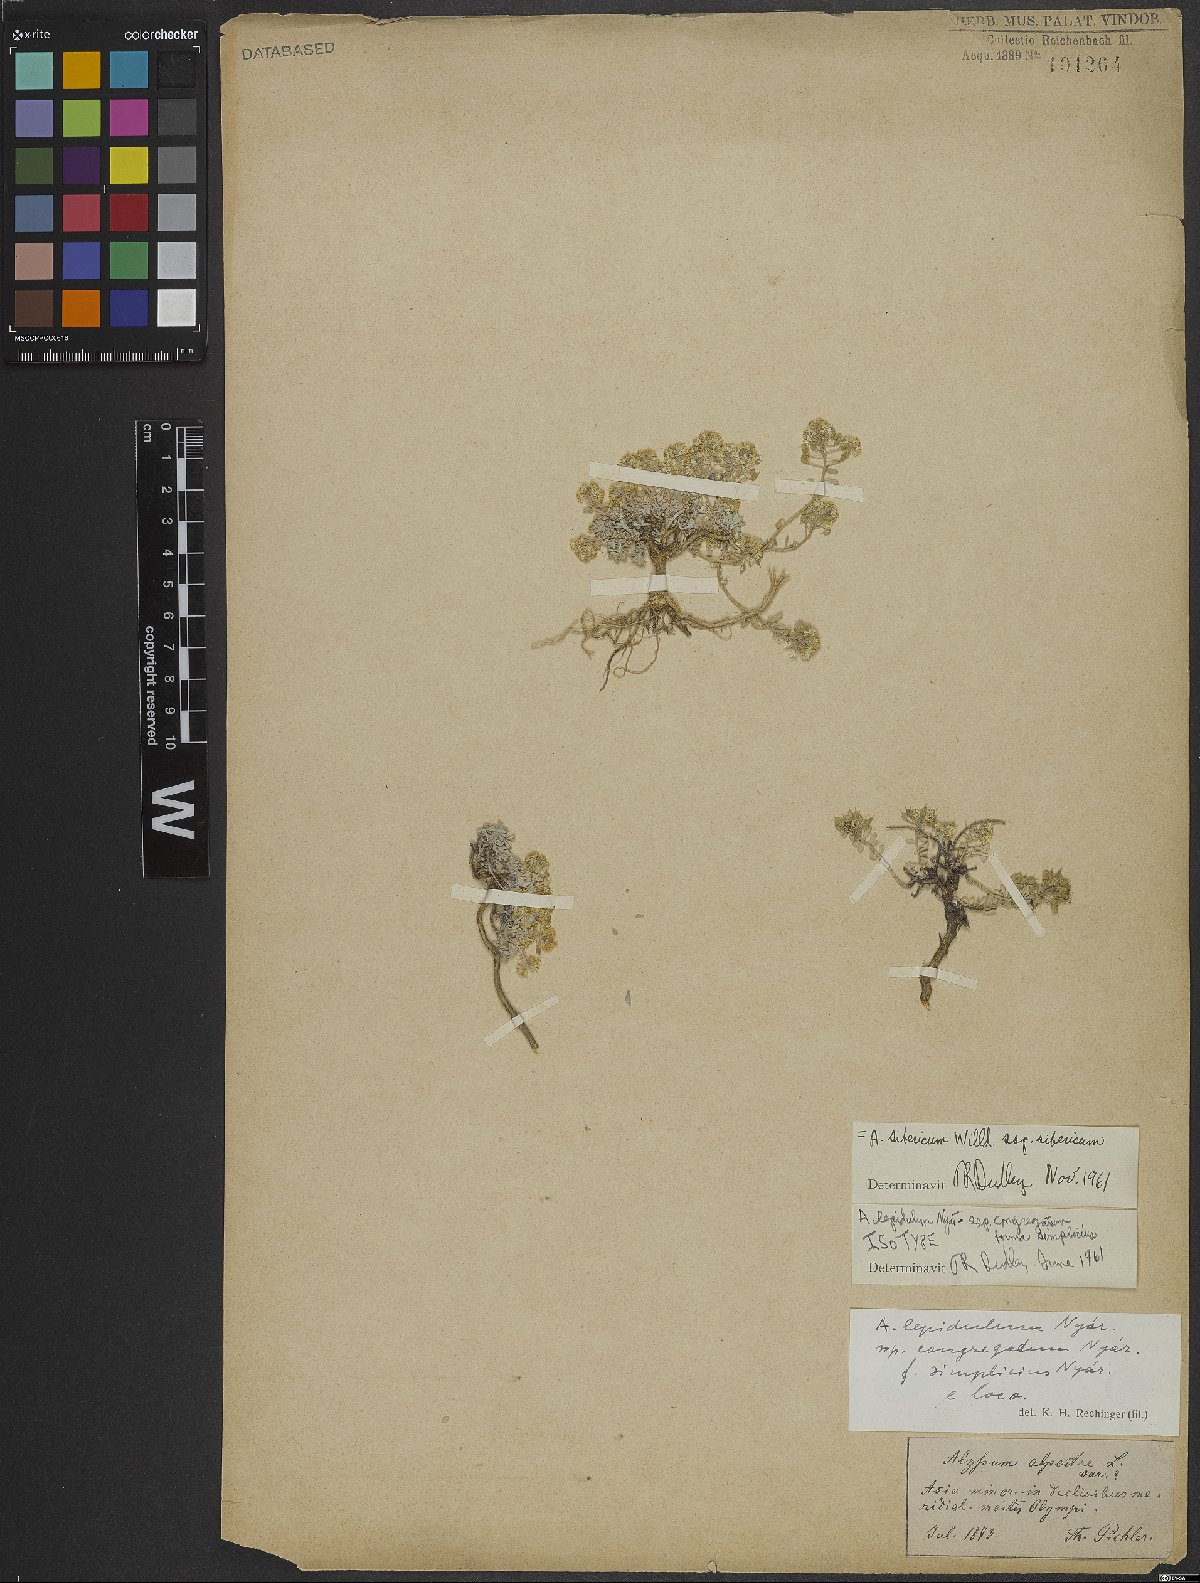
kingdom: Plantae
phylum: Tracheophyta
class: Magnoliopsida
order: Brassicales
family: Brassicaceae
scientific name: Brassicaceae
